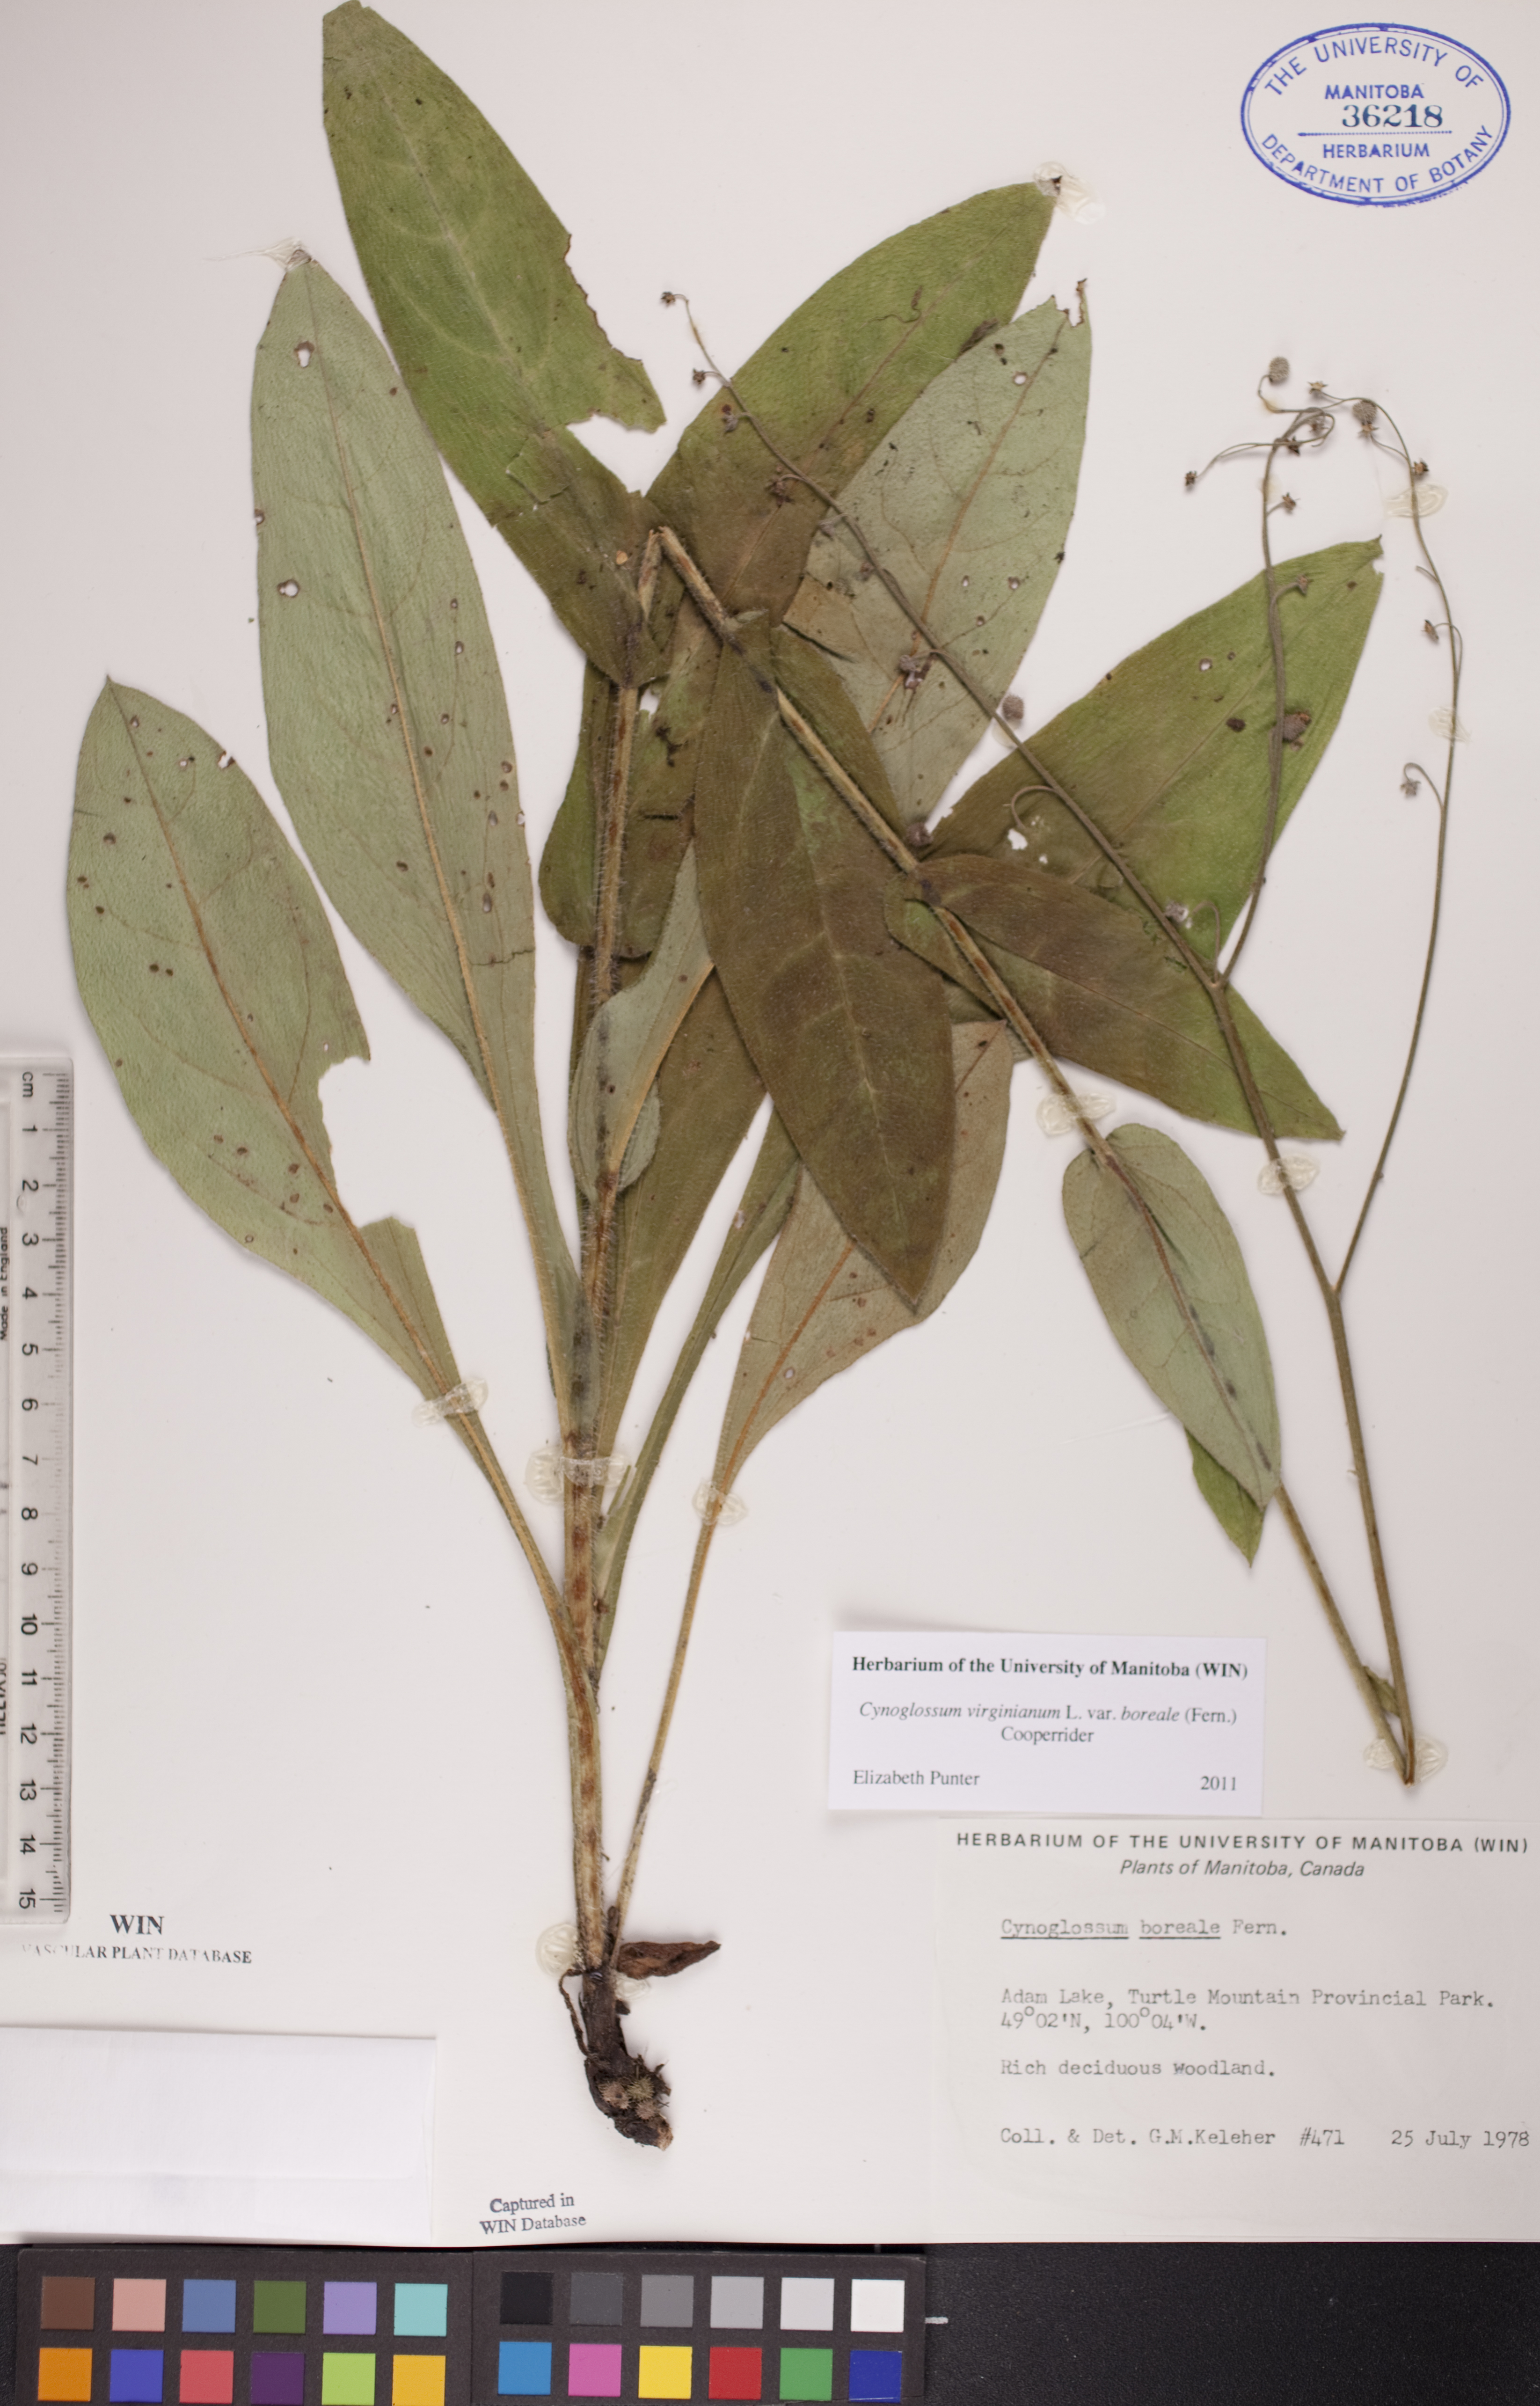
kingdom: Plantae
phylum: Tracheophyta
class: Magnoliopsida
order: Boraginales
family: Boraginaceae
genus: Andersonglossum
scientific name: Andersonglossum boreale
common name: Northern hound's-tongue
